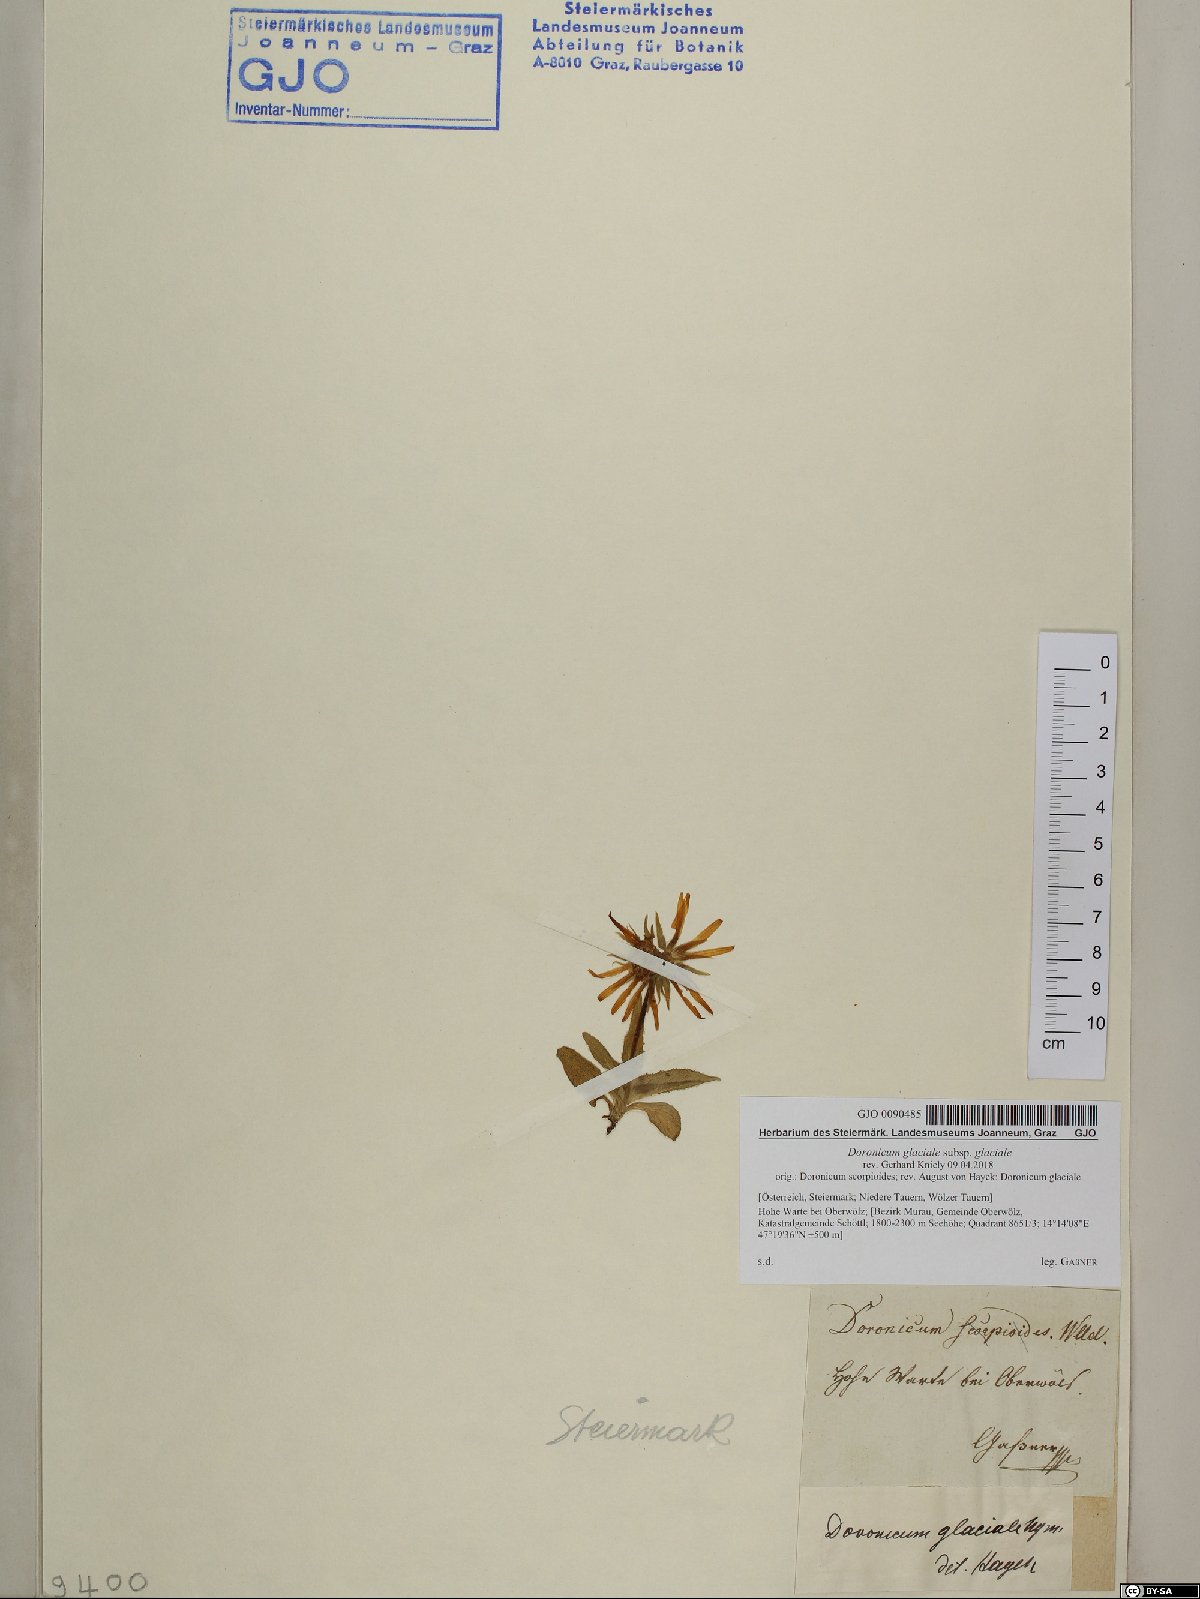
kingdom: Plantae
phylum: Tracheophyta
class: Magnoliopsida
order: Asterales
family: Asteraceae
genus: Doronicum
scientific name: Doronicum glaciale
